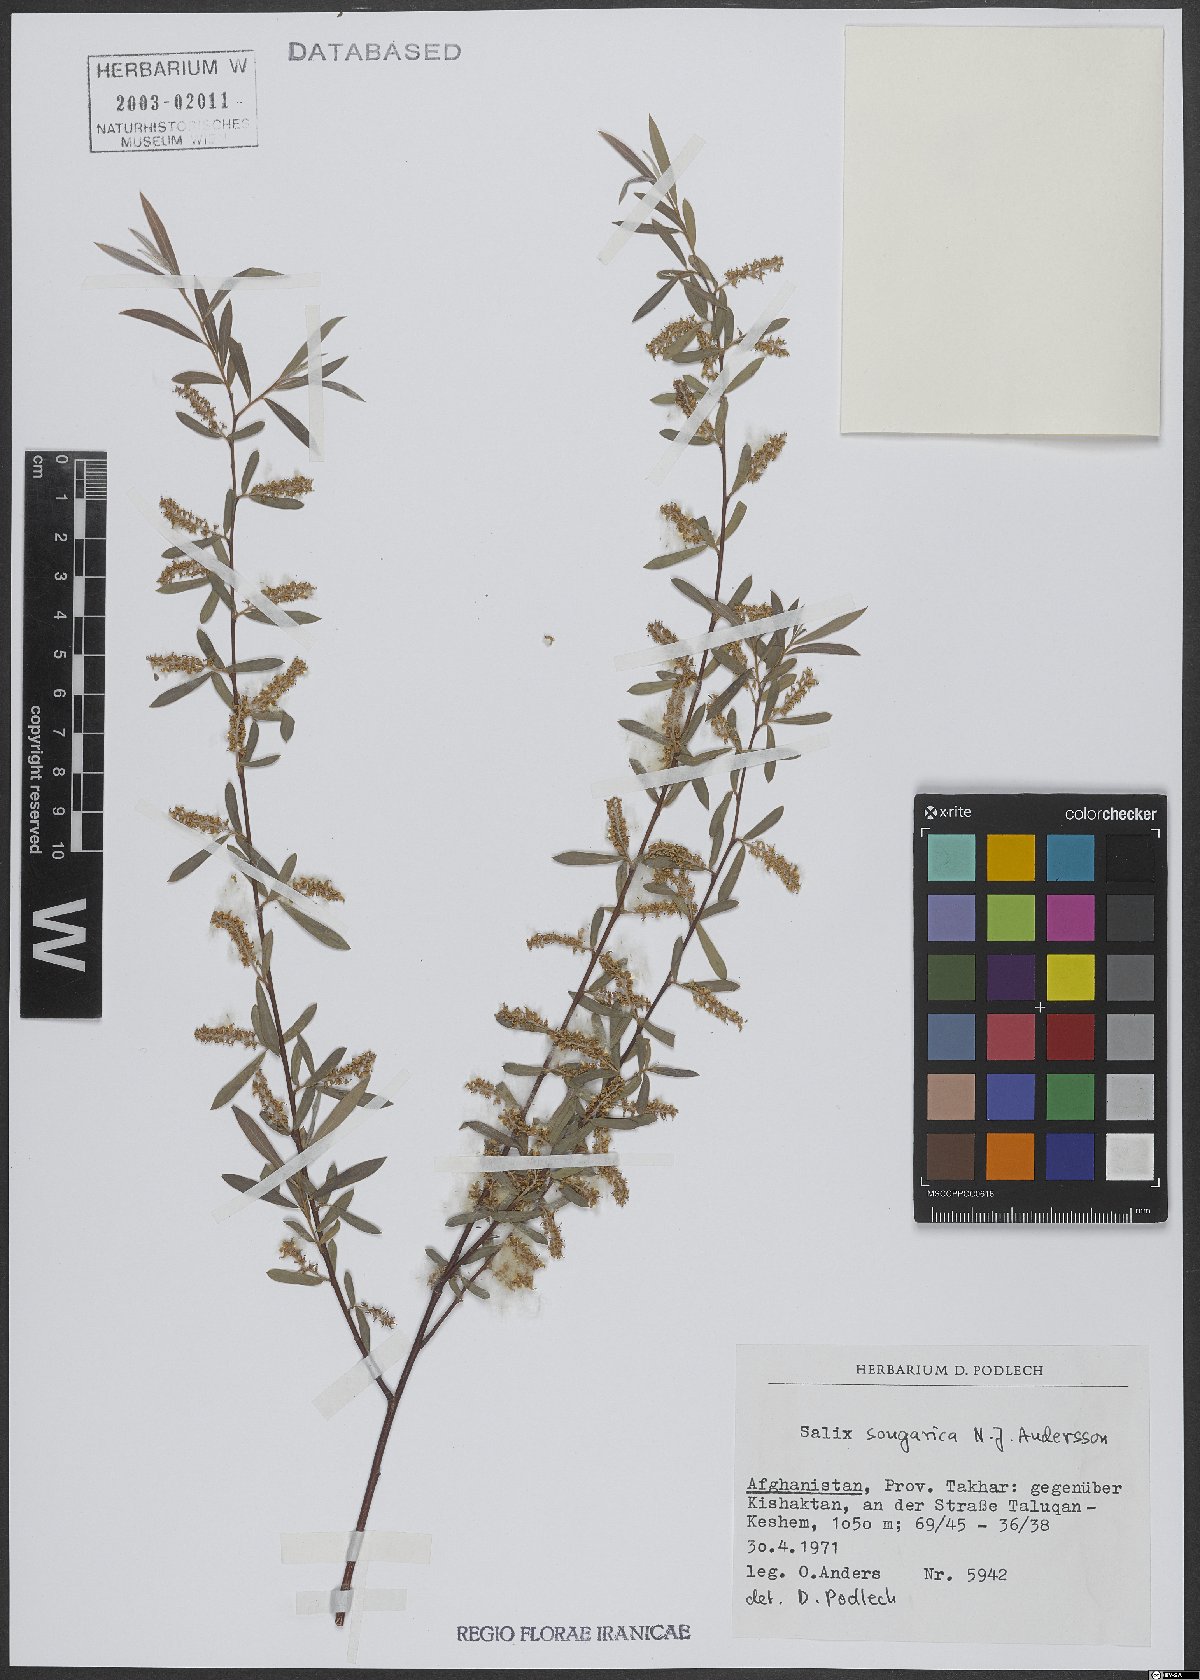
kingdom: Plantae
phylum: Tracheophyta
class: Magnoliopsida
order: Malpighiales
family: Salicaceae
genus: Salix
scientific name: Salix songarica
